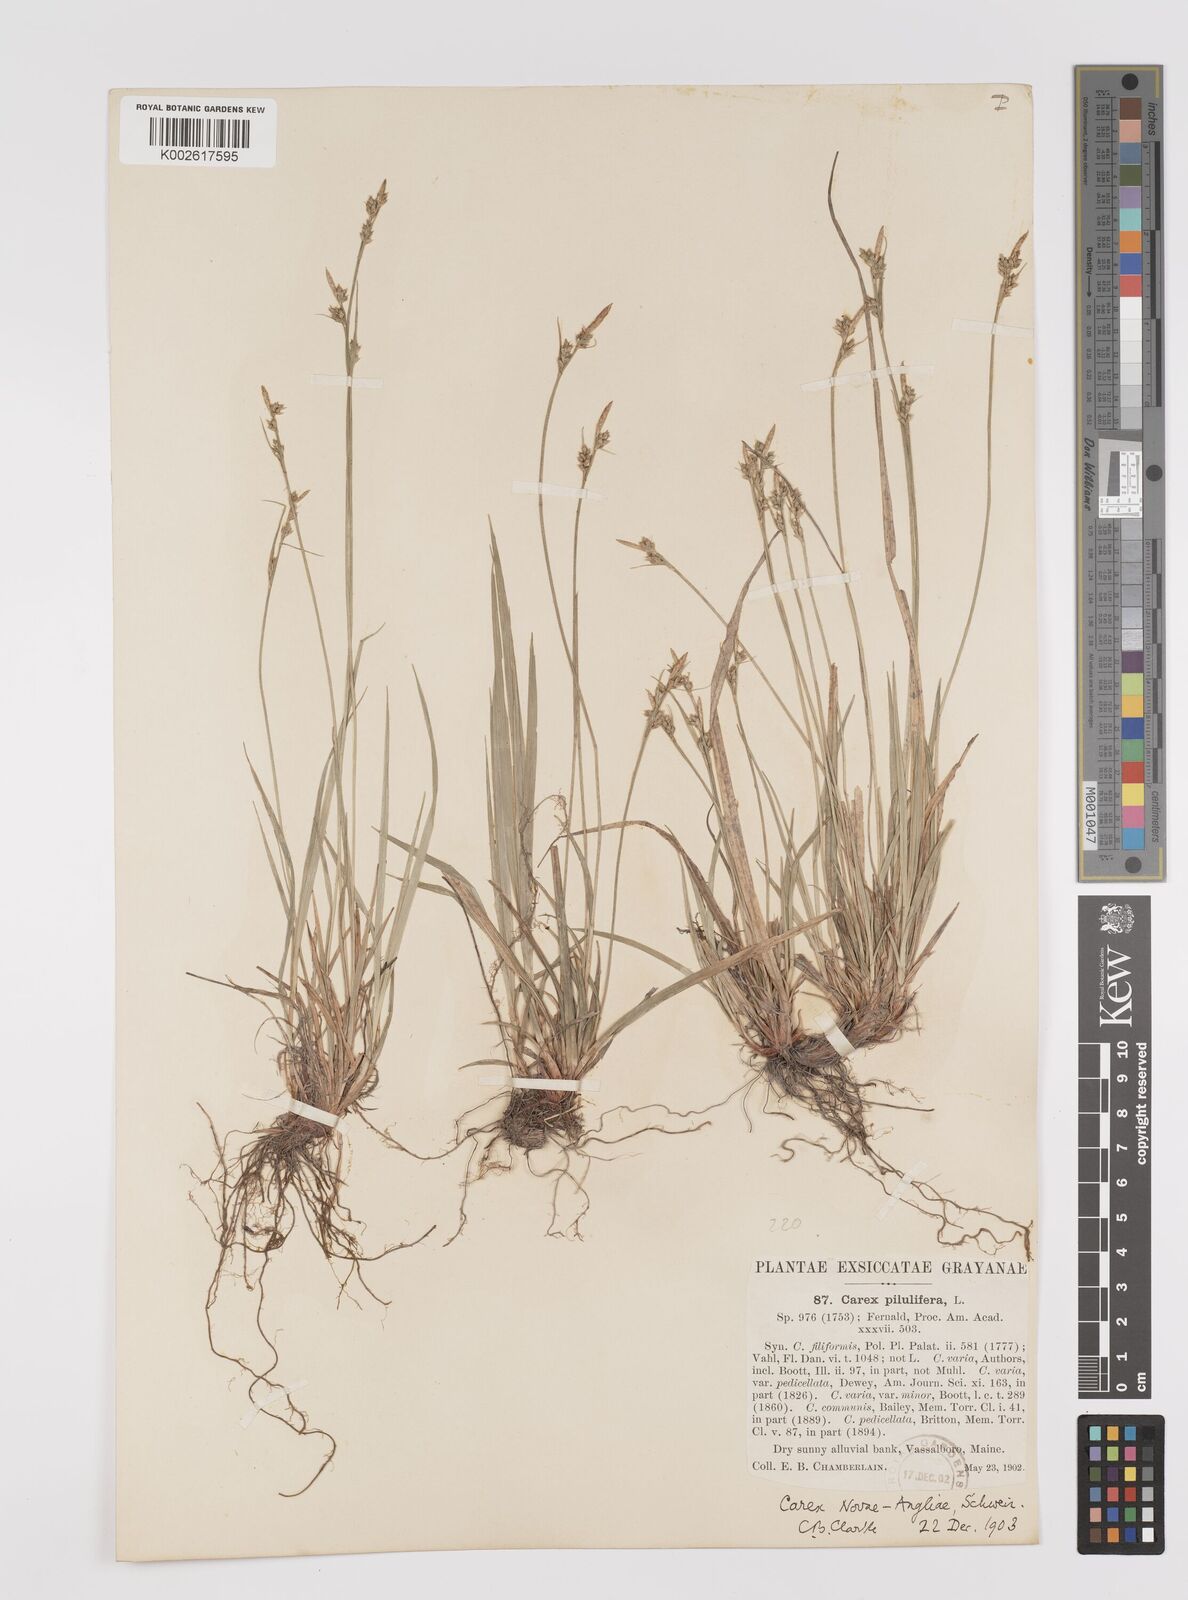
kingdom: Plantae
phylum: Tracheophyta
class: Liliopsida
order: Poales
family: Cyperaceae
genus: Carex
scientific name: Carex deflexa
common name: Bent northern sedge
